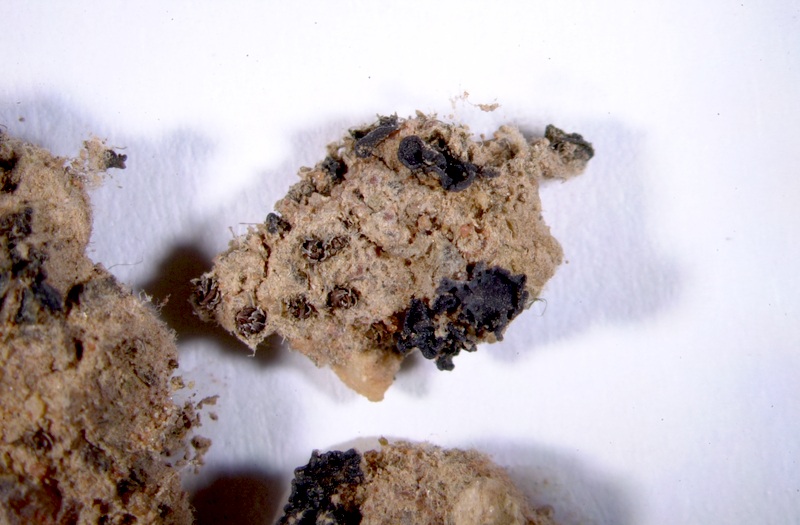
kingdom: Fungi
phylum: Ascomycota
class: Lecanoromycetes
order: Peltigerales
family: Collemataceae
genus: Enchylium
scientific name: Enchylium coccophorum
